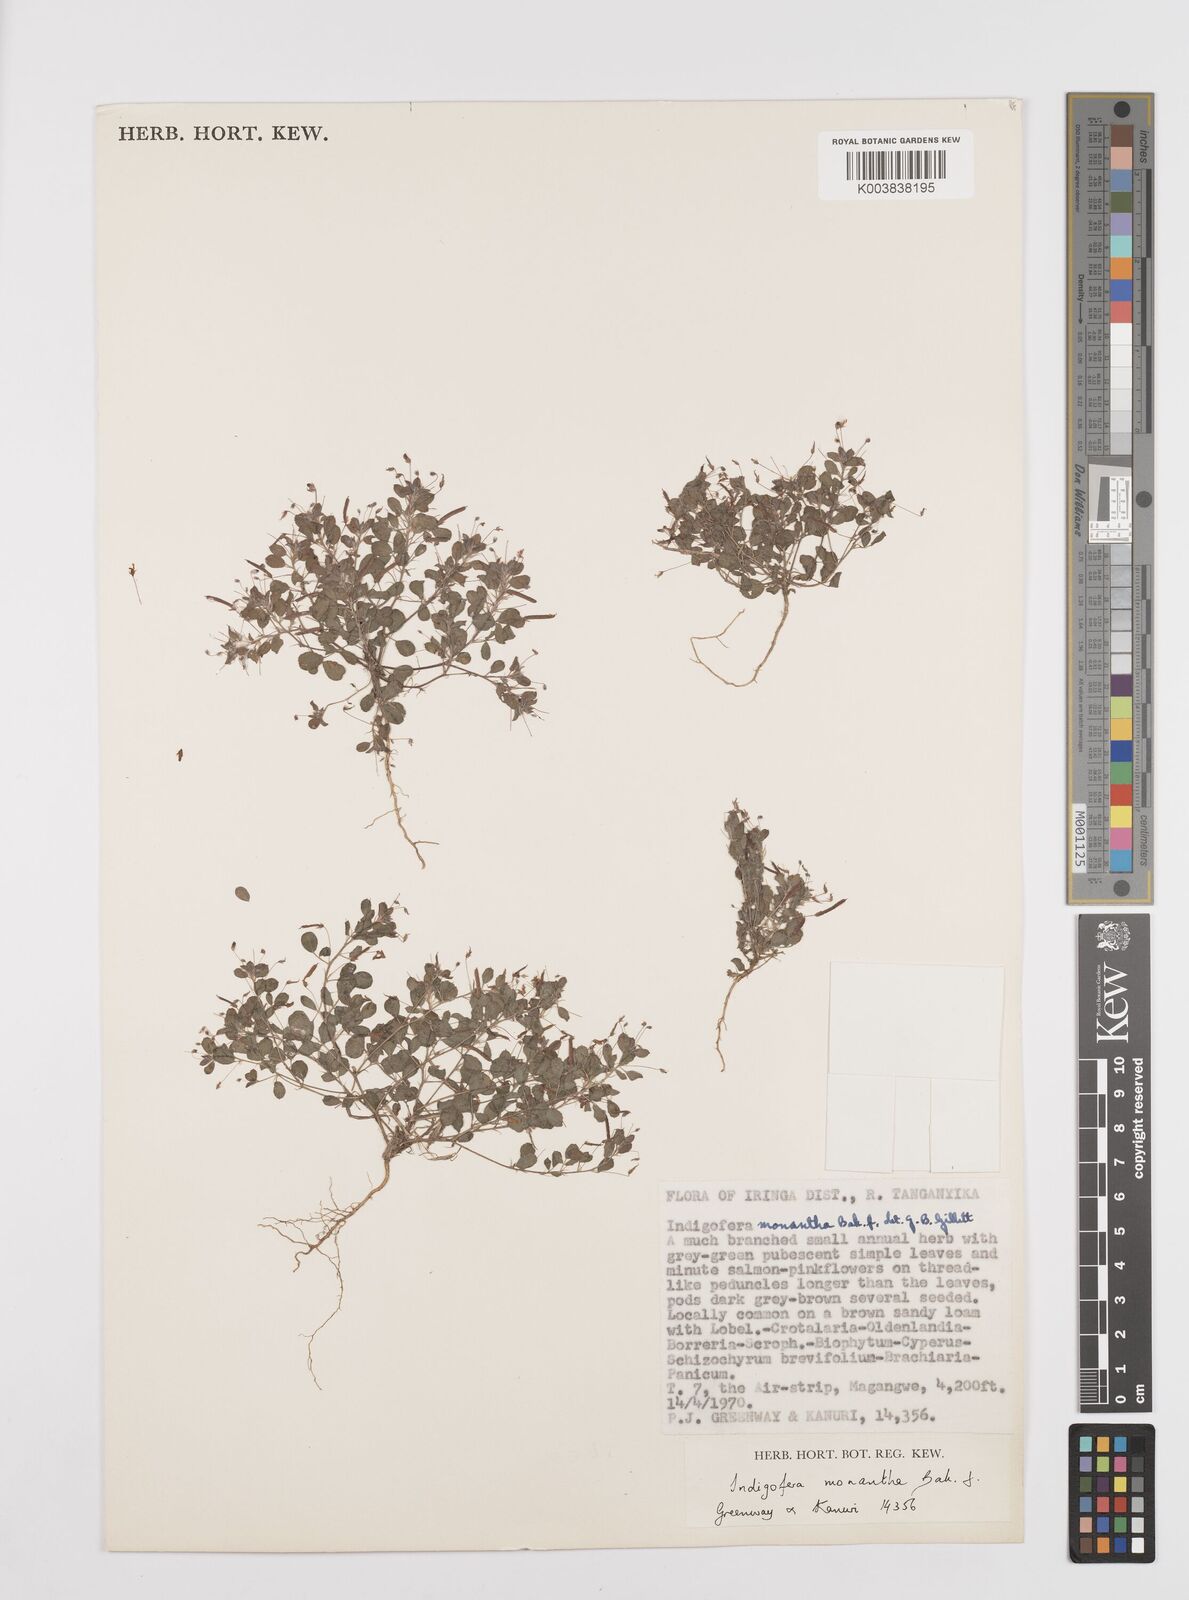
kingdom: Plantae
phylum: Tracheophyta
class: Magnoliopsida
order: Fabales
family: Fabaceae
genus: Indigofera
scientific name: Indigofera monantha
